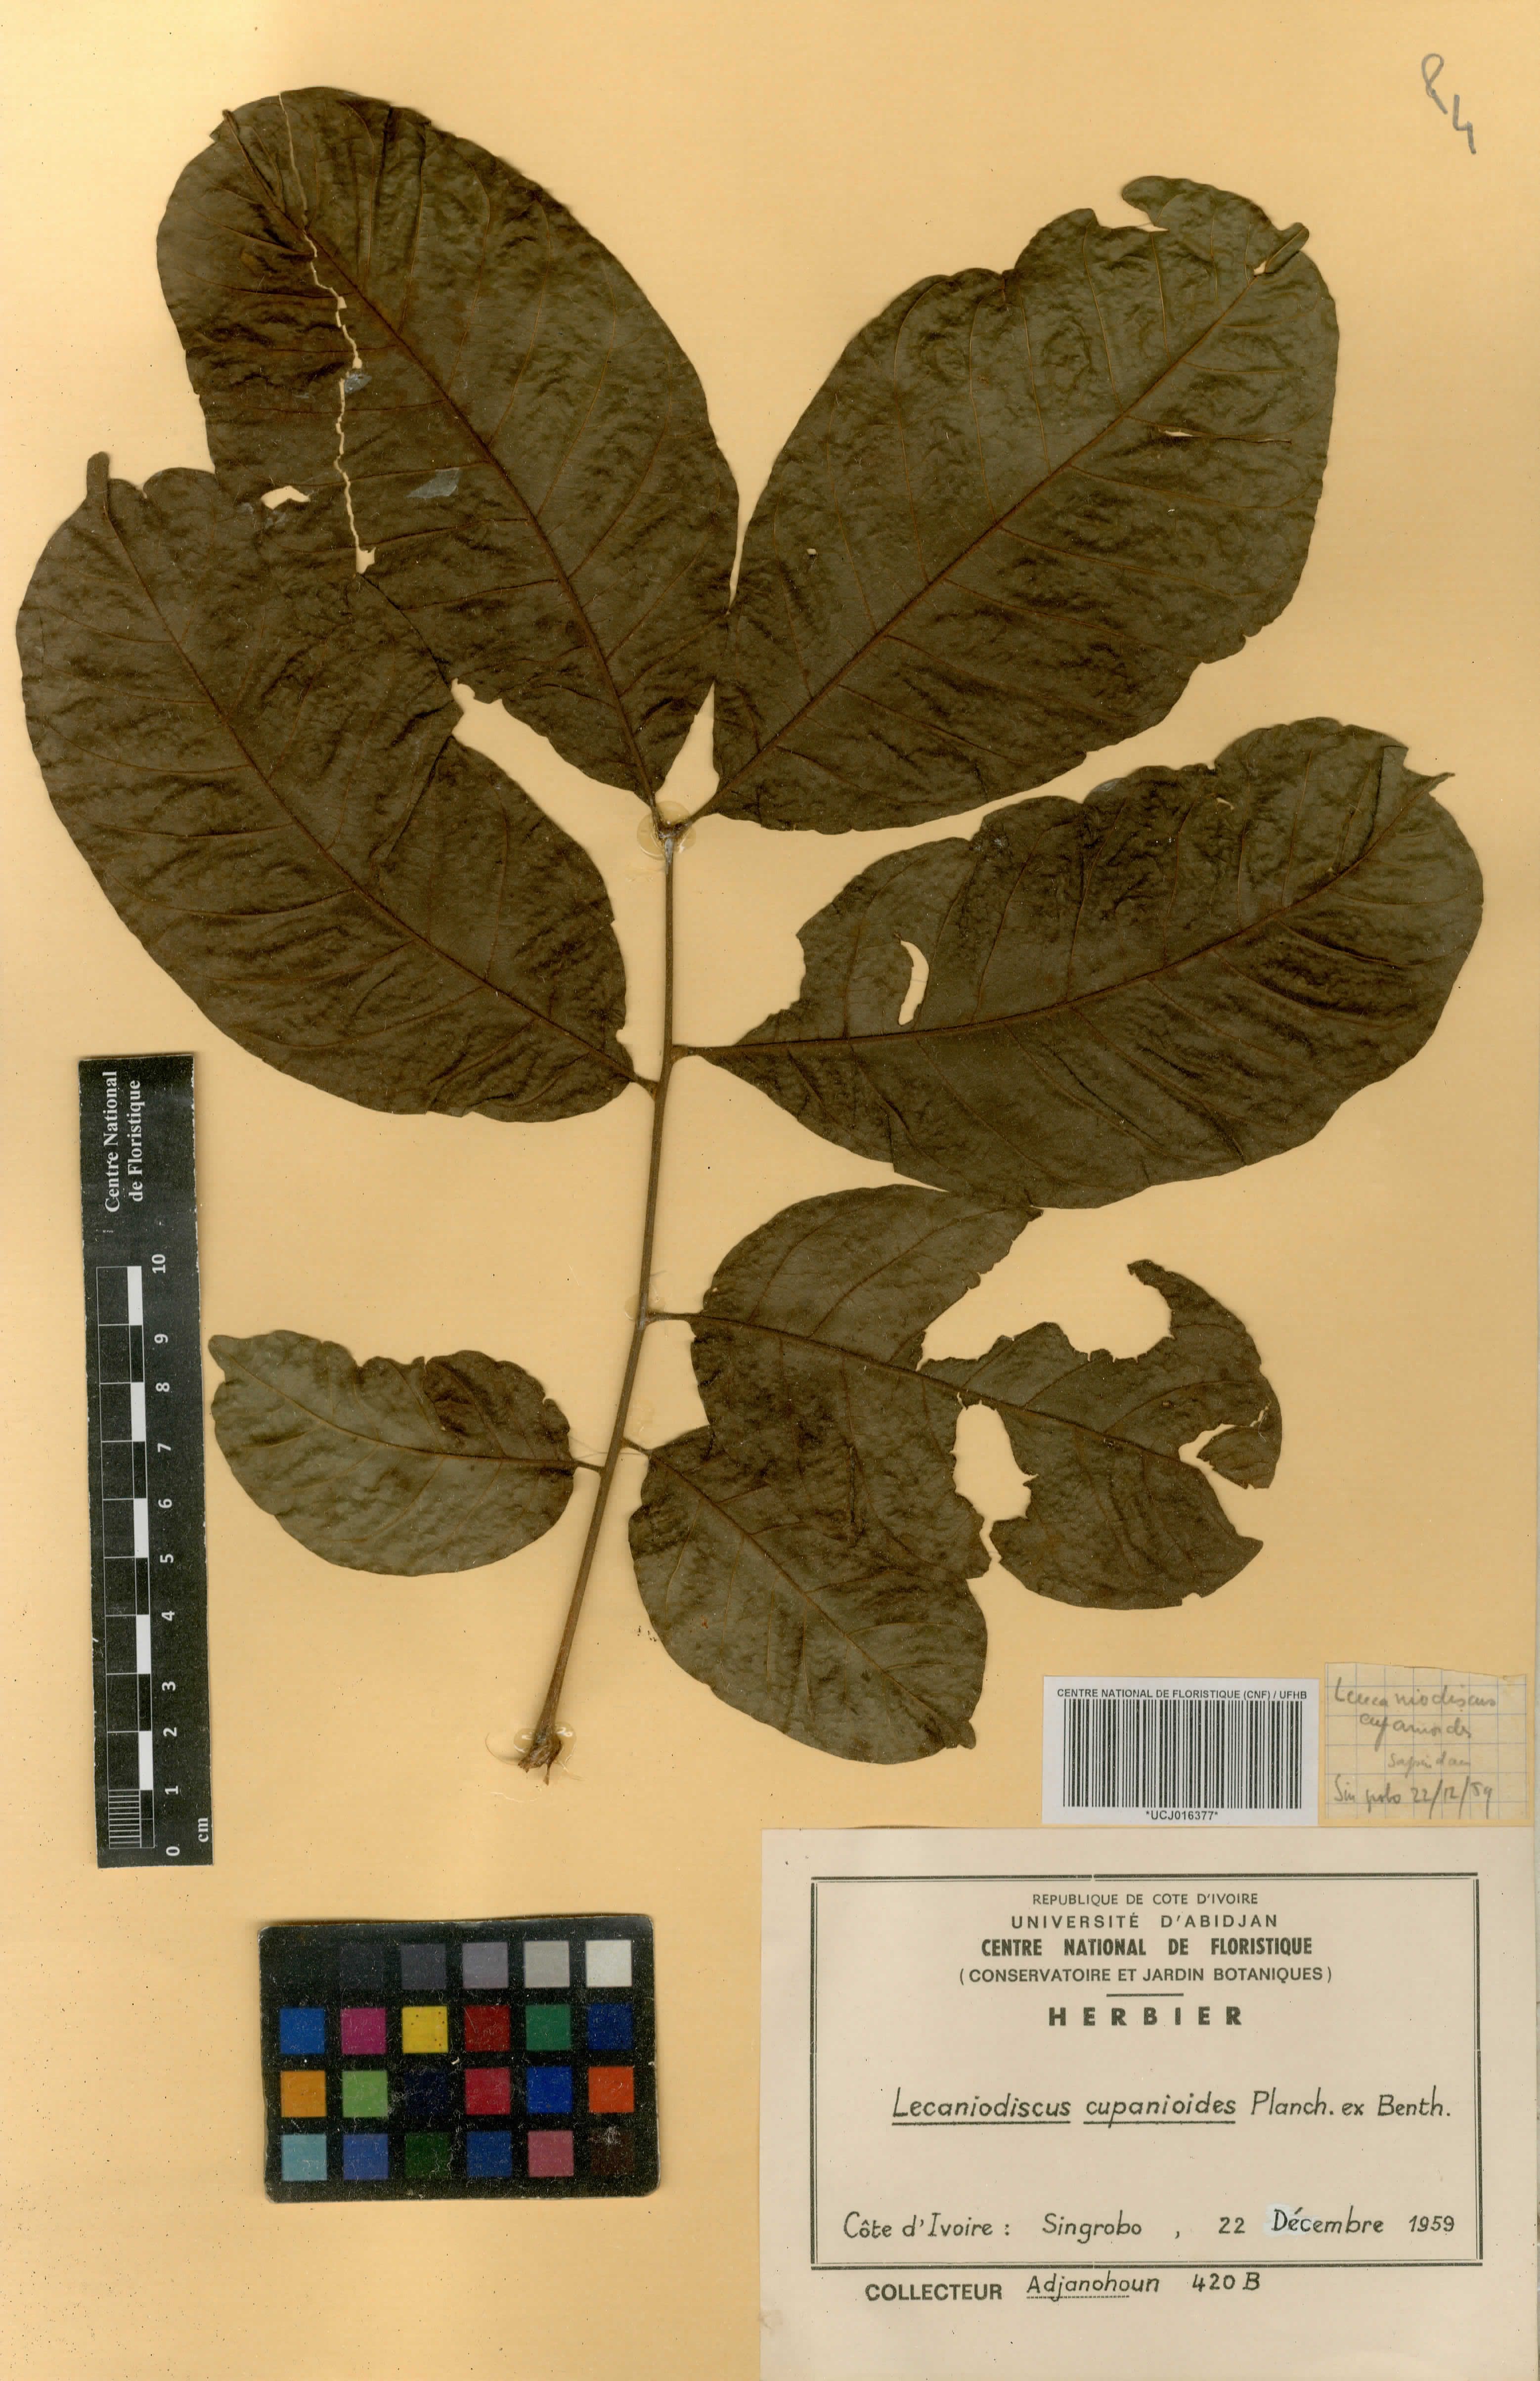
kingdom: Plantae
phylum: Tracheophyta
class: Magnoliopsida
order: Sapindales
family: Sapindaceae
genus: Lecaniodiscus
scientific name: Lecaniodiscus cupanioides
